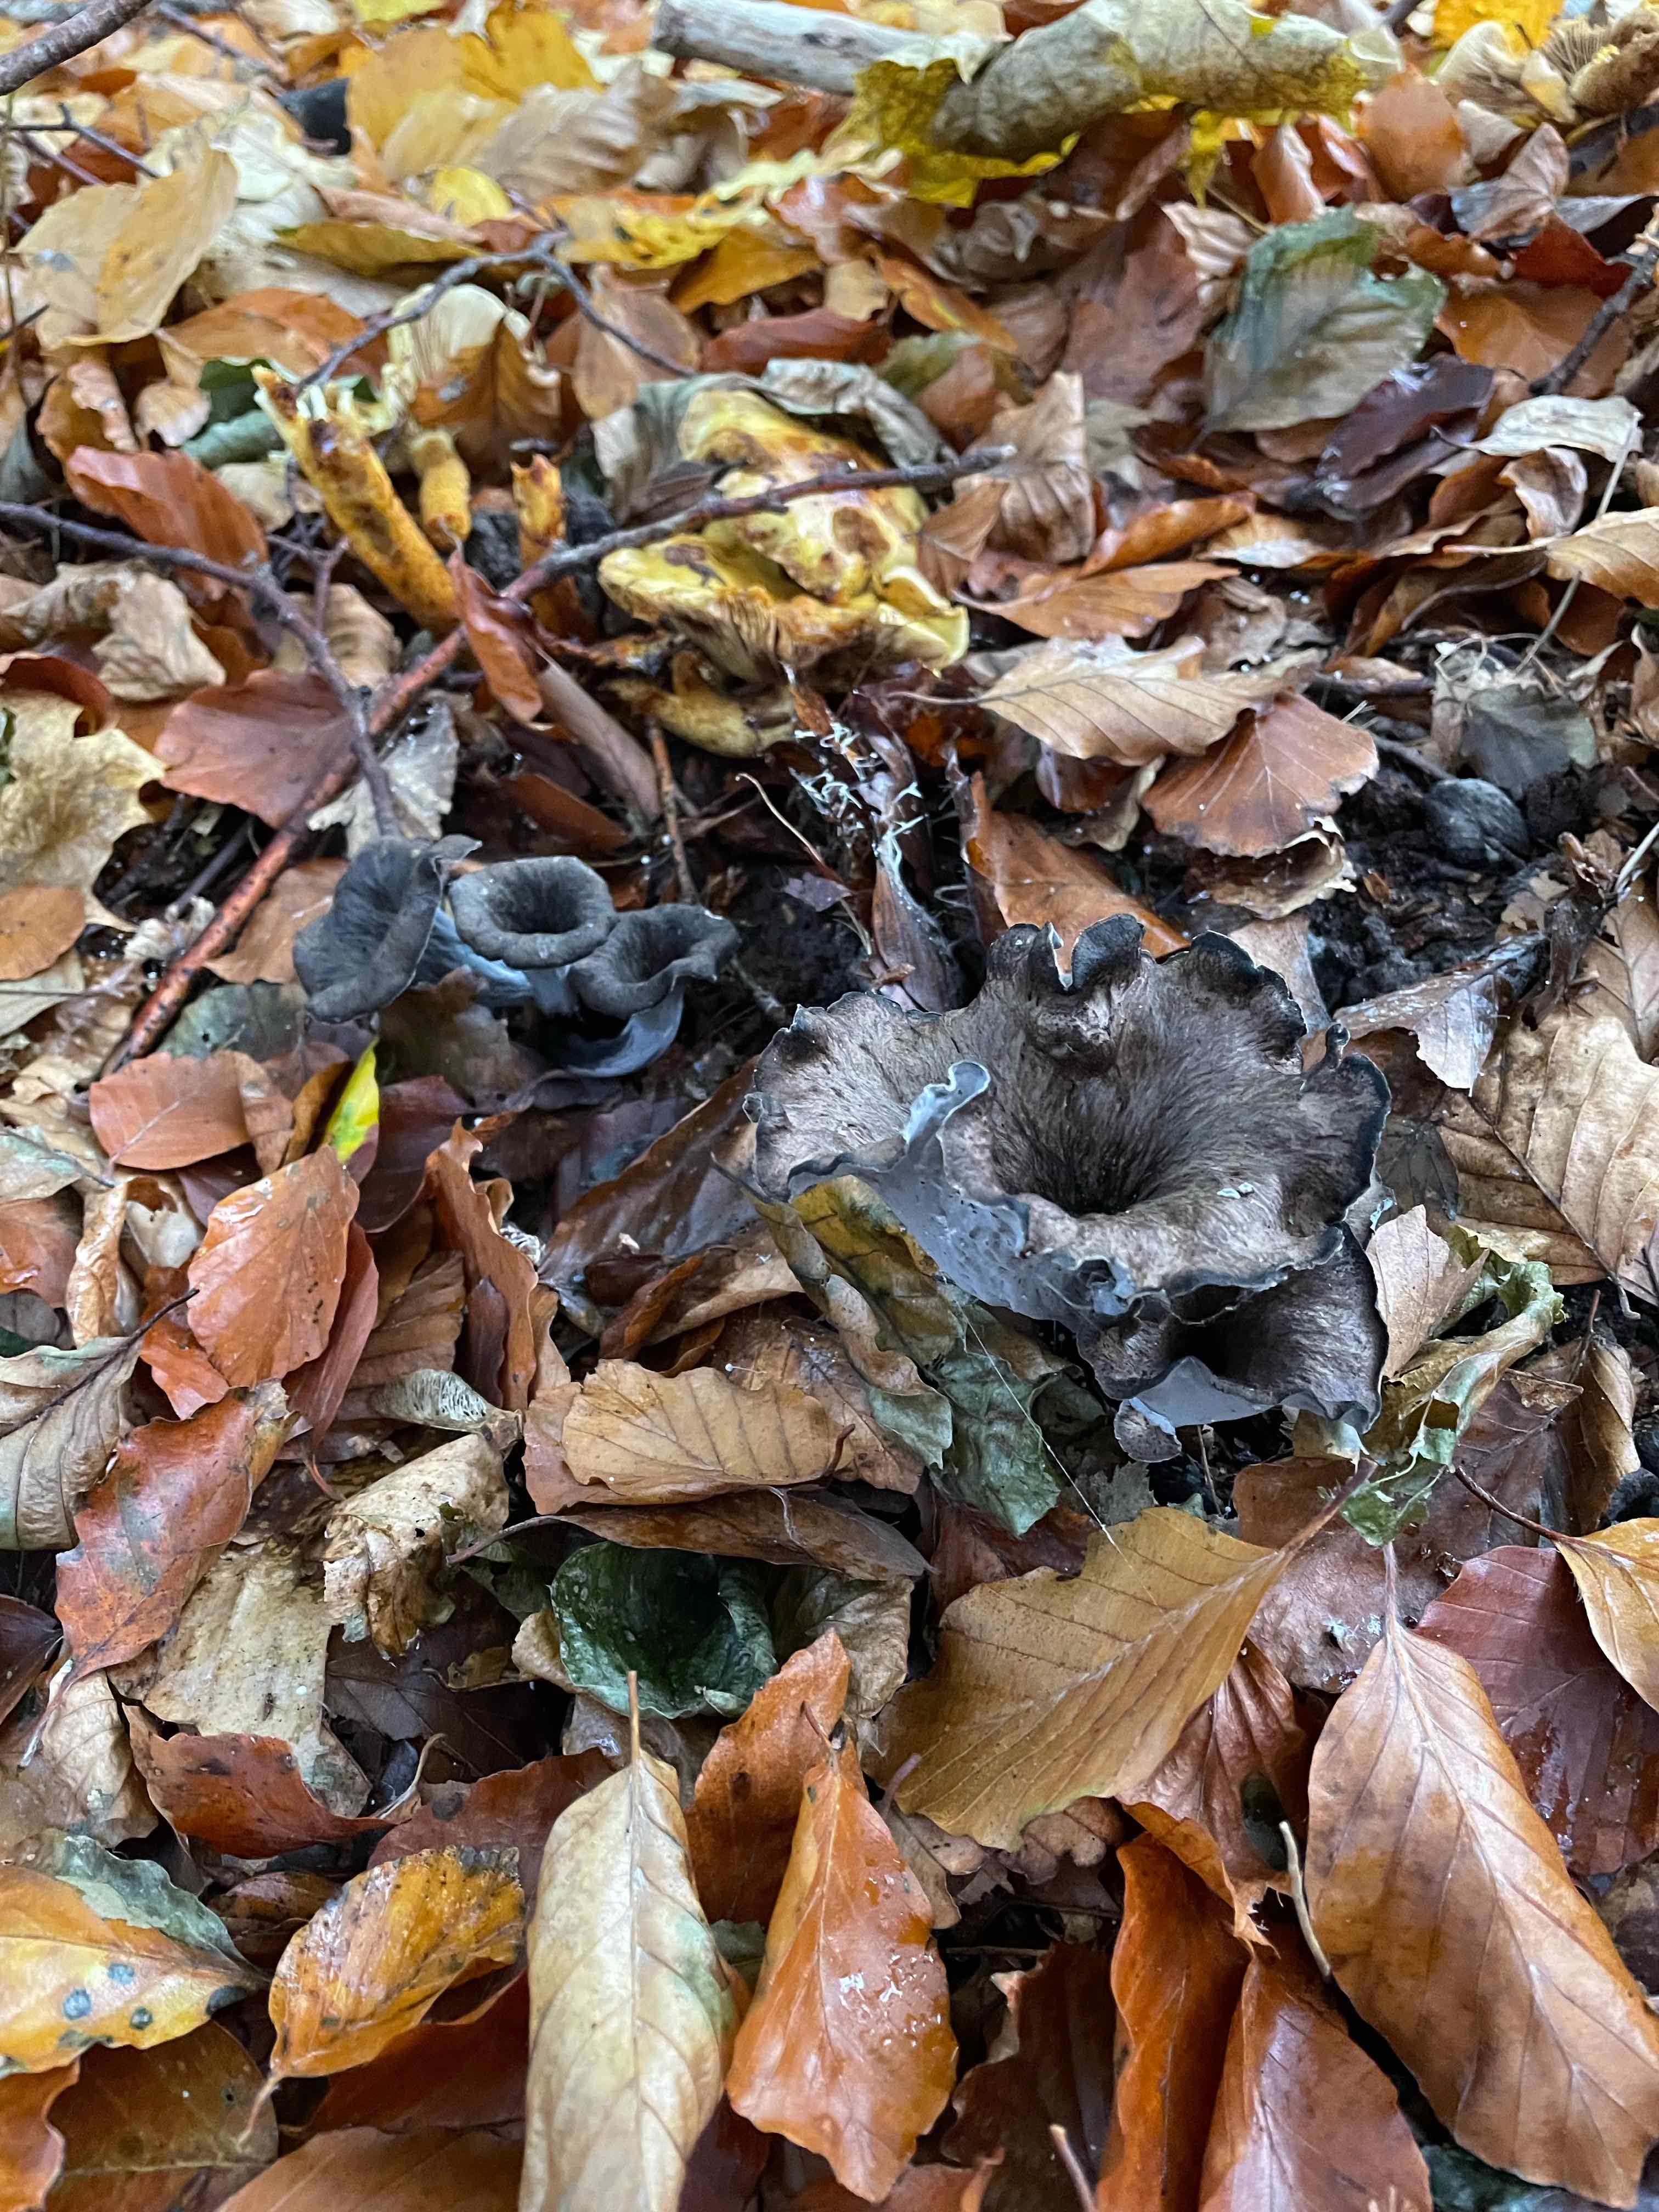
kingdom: Fungi
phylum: Basidiomycota
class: Agaricomycetes
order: Cantharellales
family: Hydnaceae
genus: Craterellus
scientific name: Craterellus cornucopioides
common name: trompetsvamp
